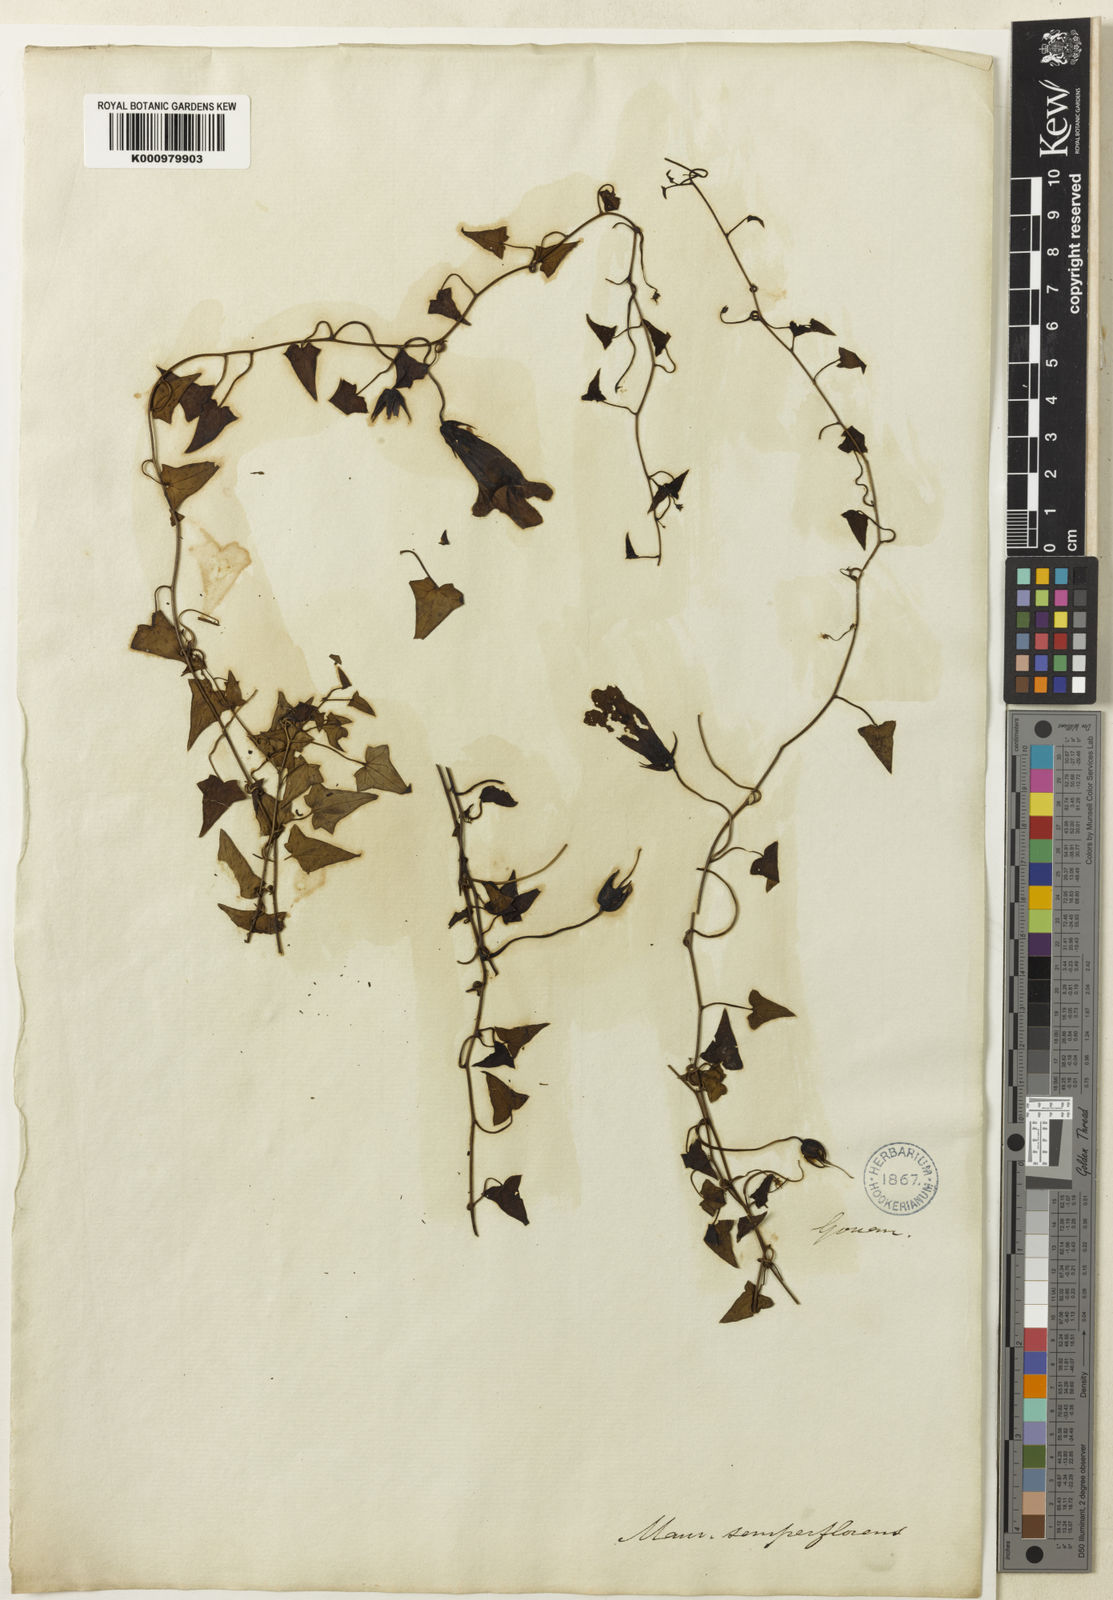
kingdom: Plantae
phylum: Tracheophyta
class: Magnoliopsida
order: Lamiales
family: Plantaginaceae
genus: Maurandya
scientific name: Maurandya
